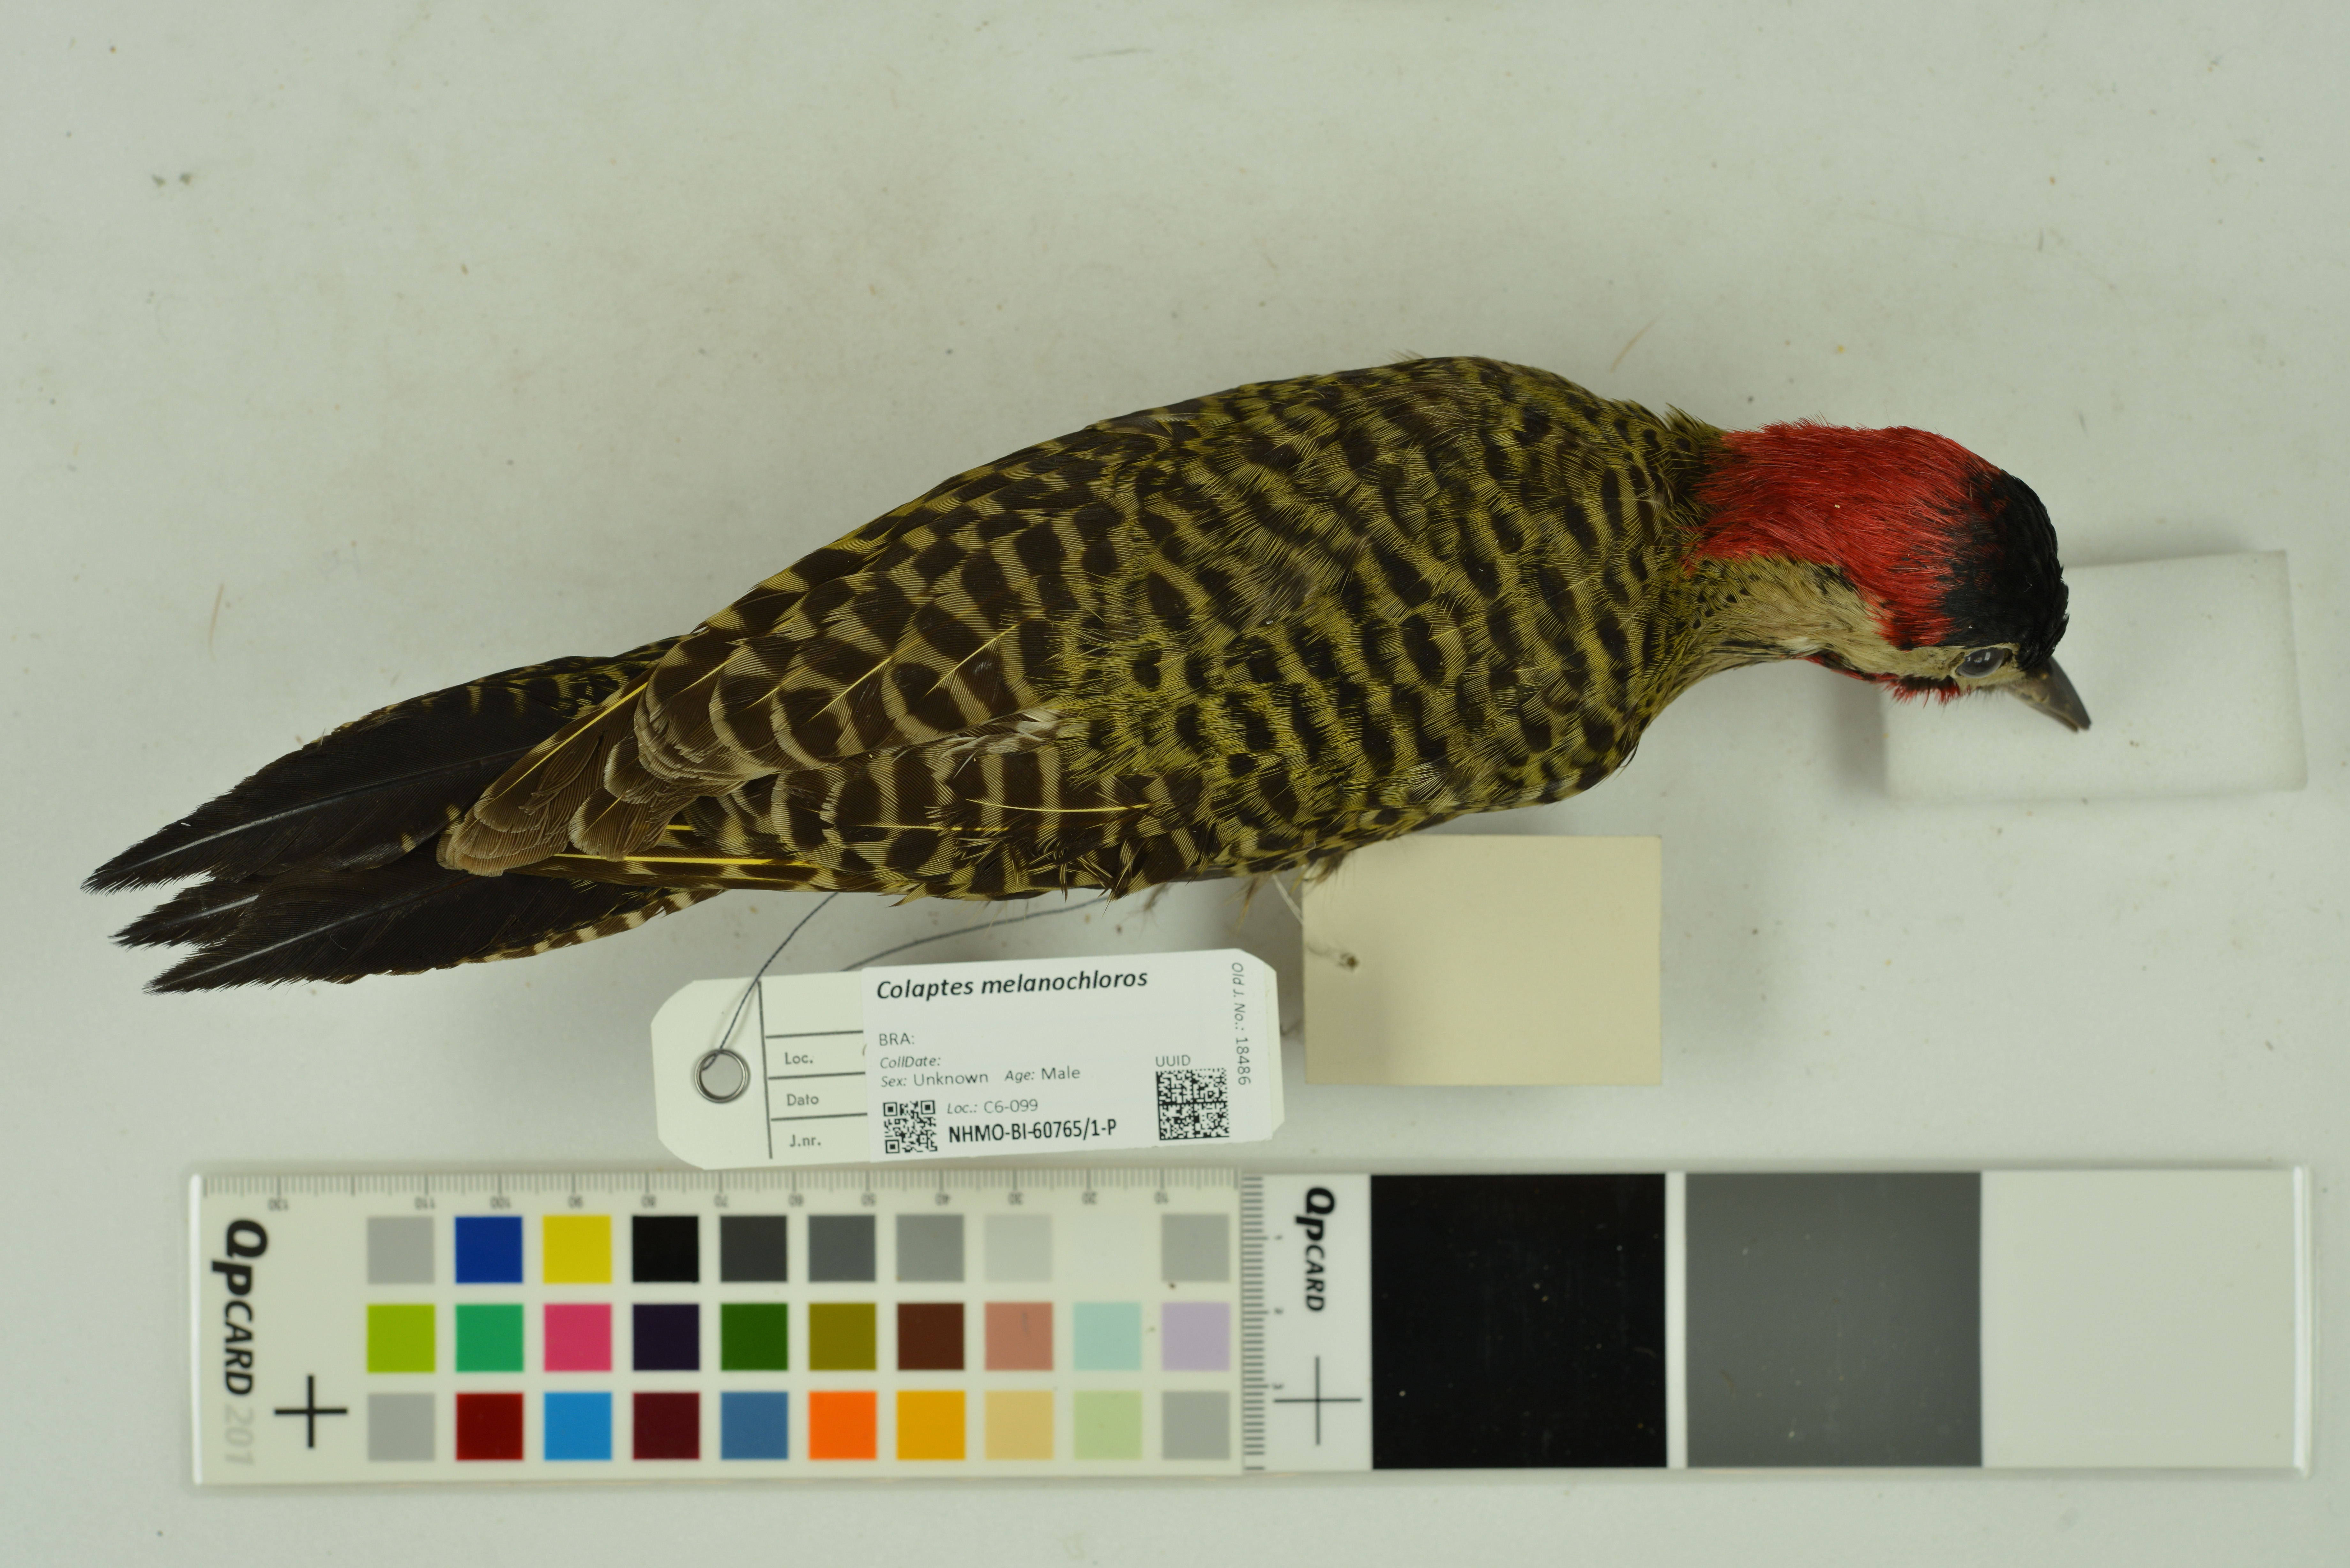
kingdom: Animalia
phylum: Chordata
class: Aves
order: Piciformes
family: Picidae
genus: Colaptes
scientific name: Colaptes melanochloros
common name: Green-barred woodpecker
